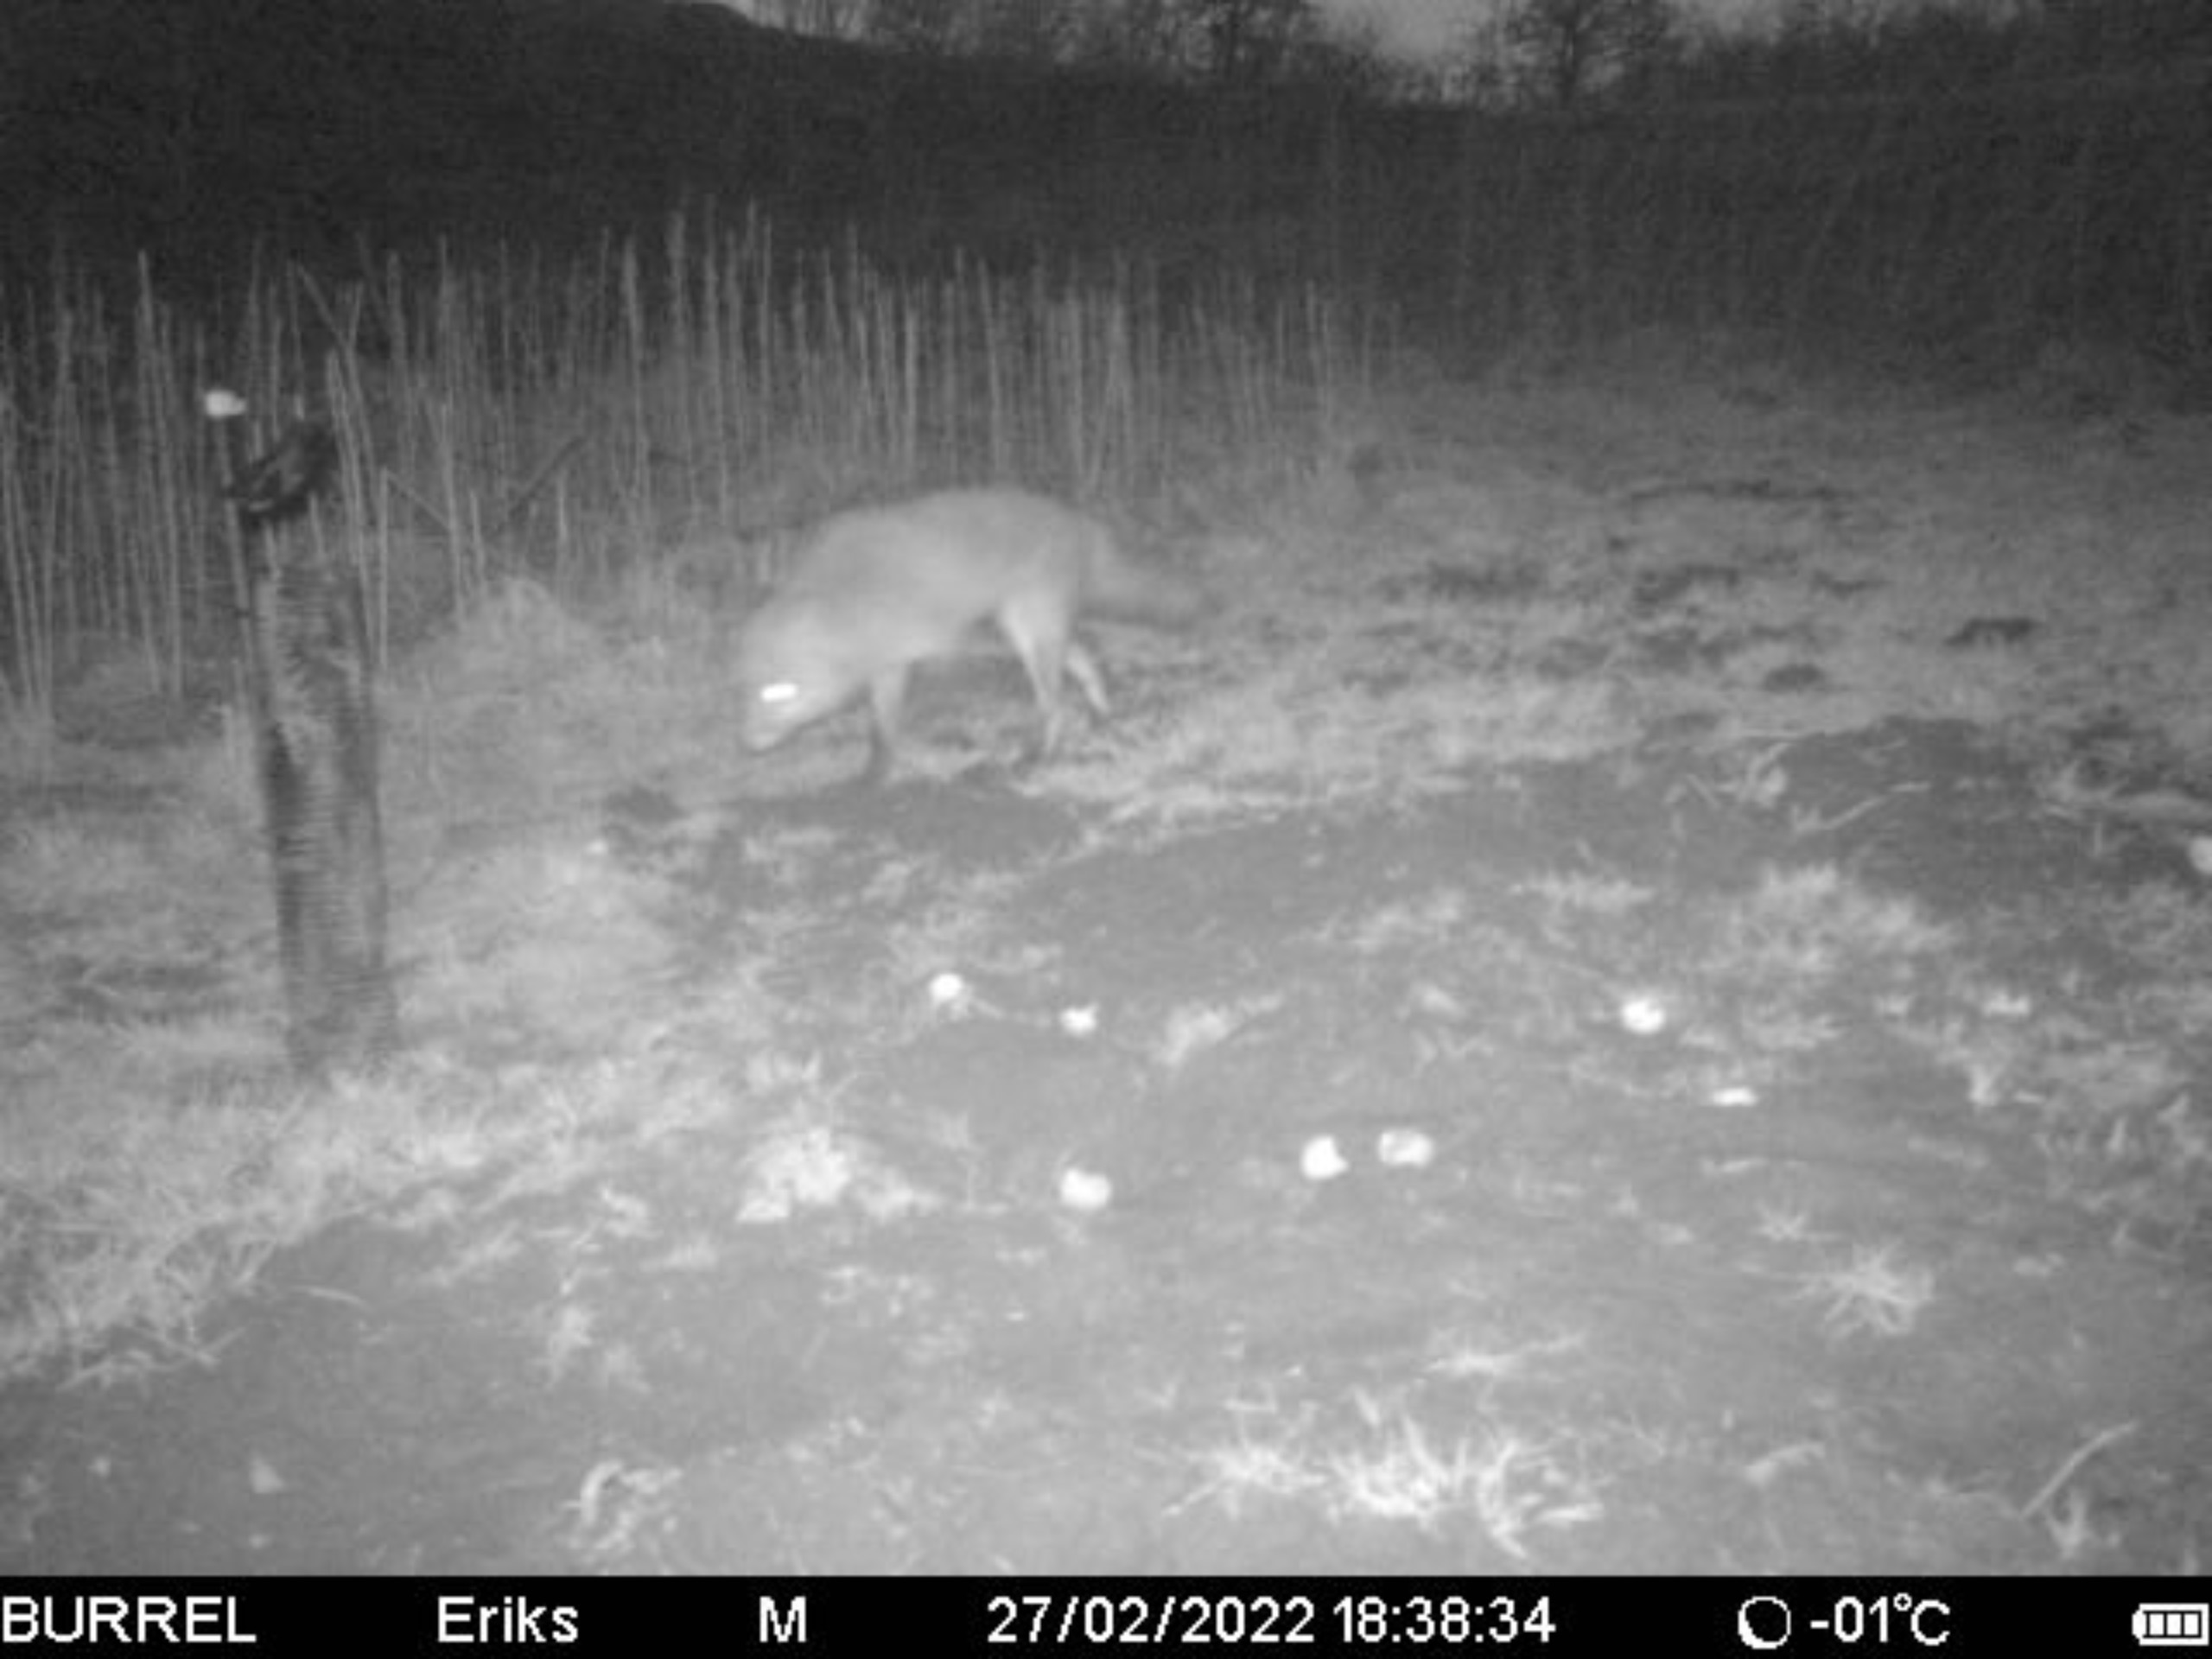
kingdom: Animalia
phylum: Chordata
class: Mammalia
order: Carnivora
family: Canidae
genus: Vulpes
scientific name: Vulpes vulpes
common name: Ræv
